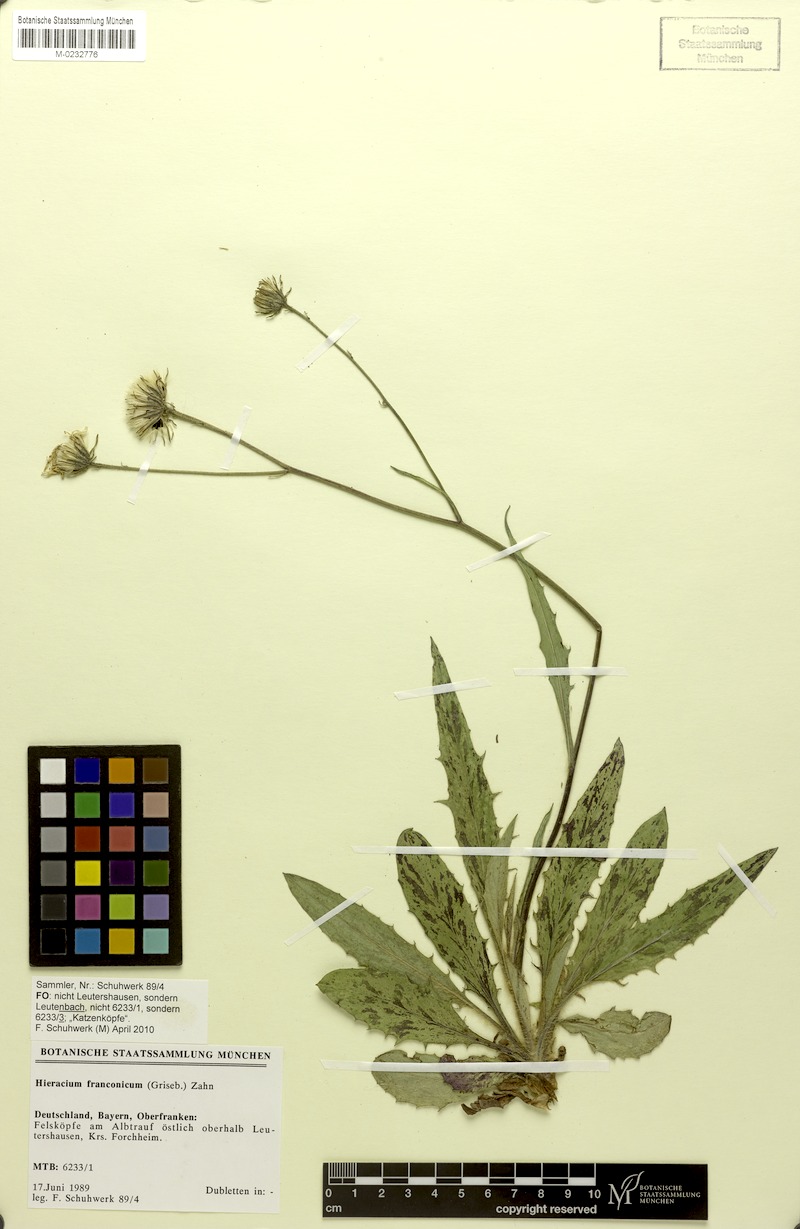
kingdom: Plantae
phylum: Tracheophyta
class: Magnoliopsida
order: Asterales
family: Asteraceae
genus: Hieracium
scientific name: Hieracium franconicum
